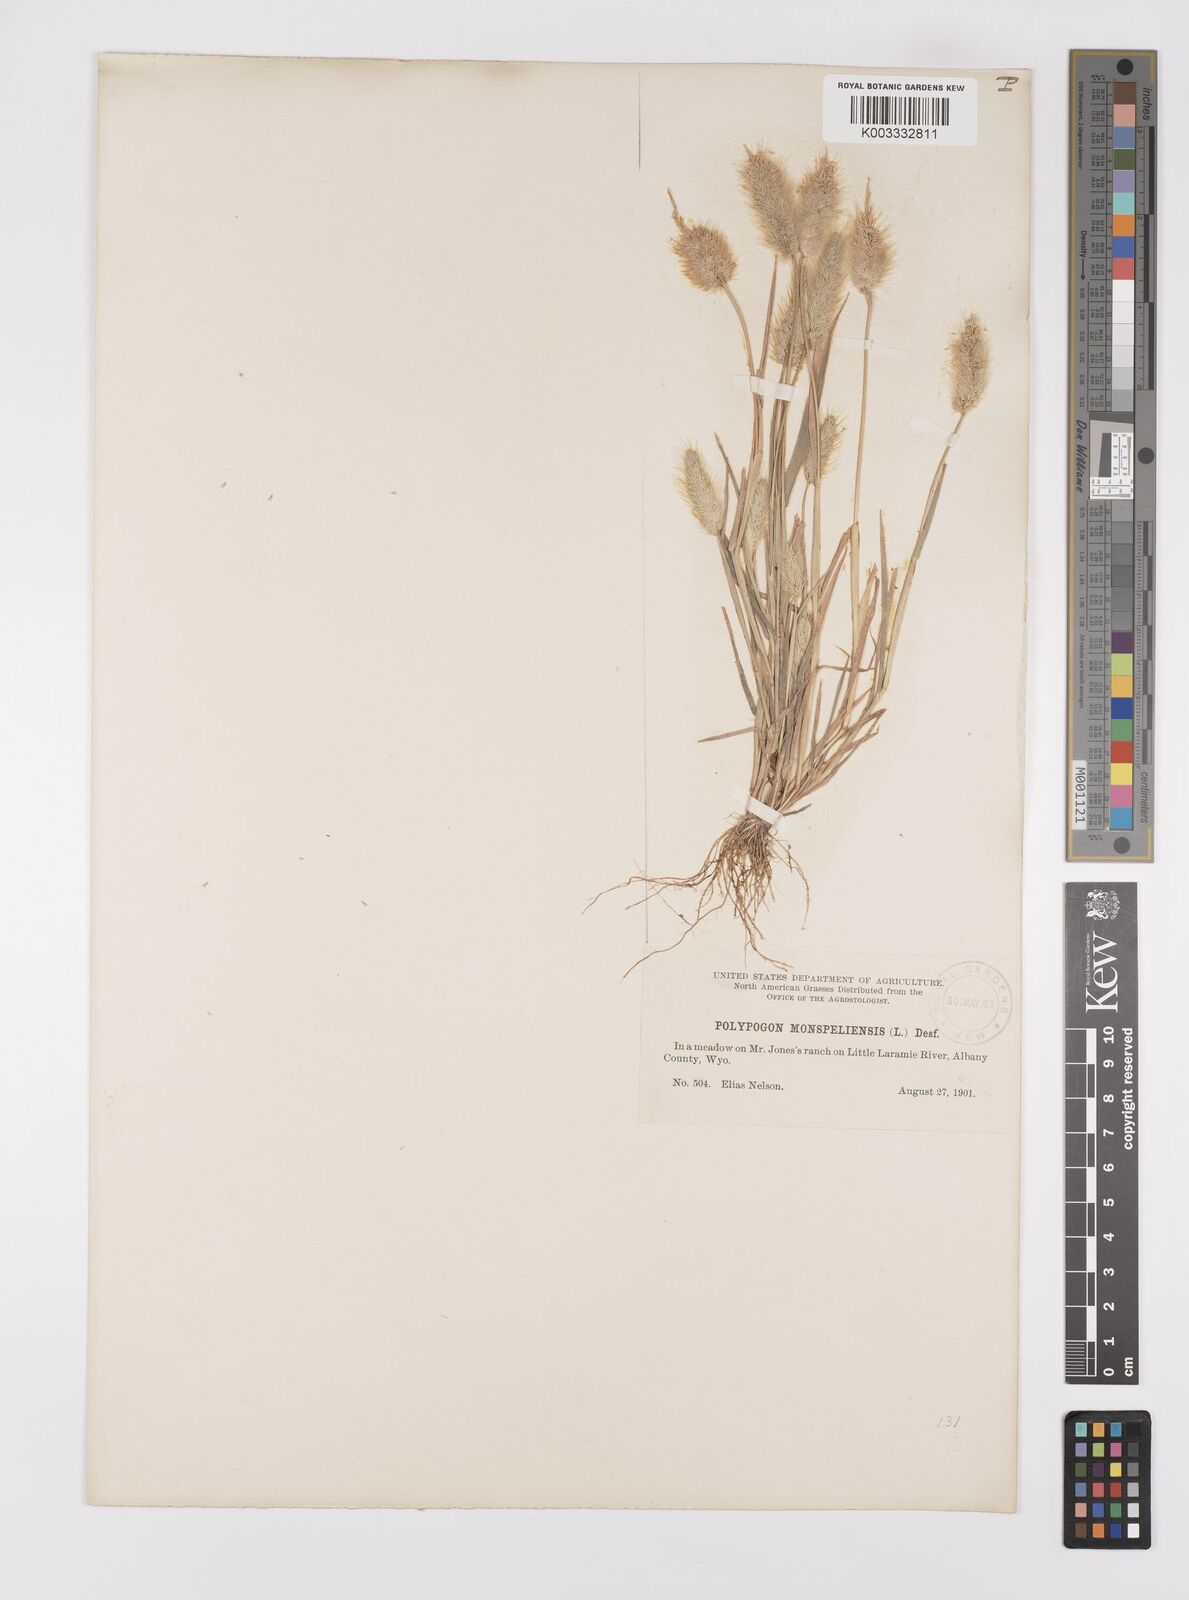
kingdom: Plantae
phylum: Tracheophyta
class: Liliopsida
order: Poales
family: Poaceae
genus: Polypogon
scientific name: Polypogon monspeliensis
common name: Annual rabbitsfoot grass
